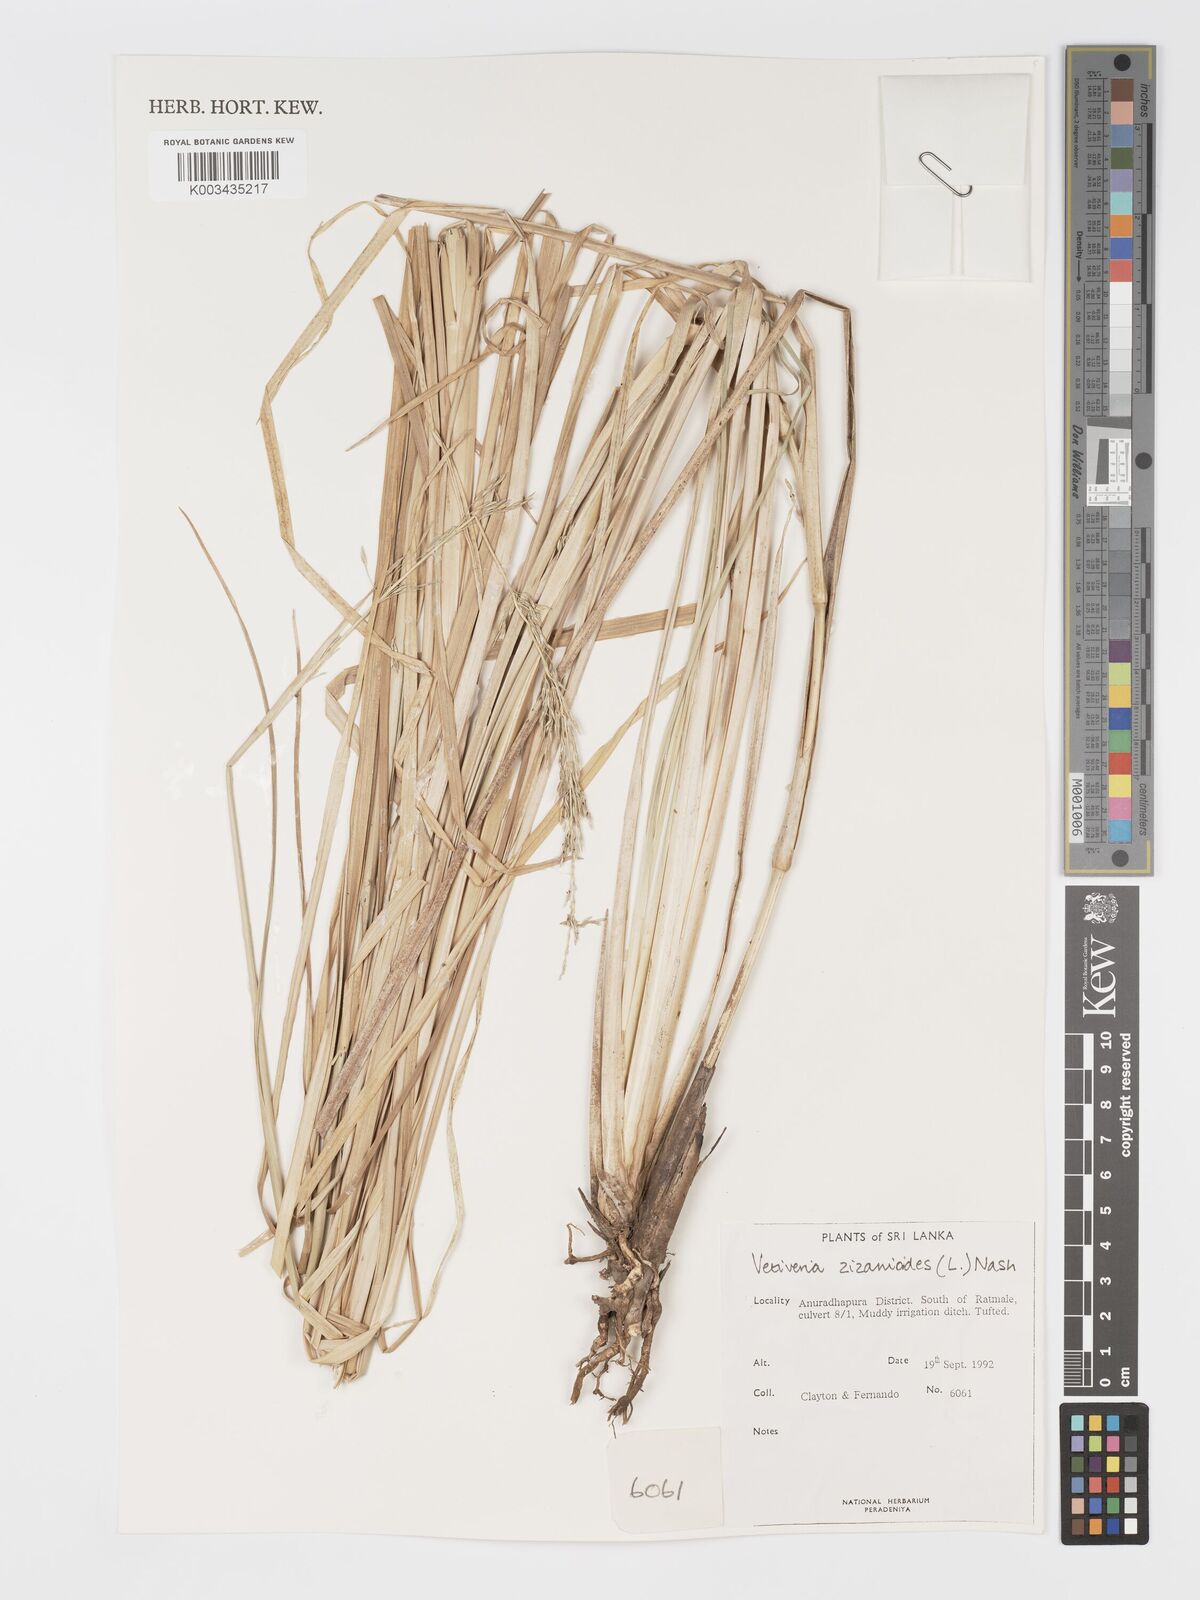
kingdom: Plantae
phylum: Tracheophyta
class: Liliopsida
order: Poales
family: Poaceae
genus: Chrysopogon
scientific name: Chrysopogon zizanioides
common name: False beardgrass
